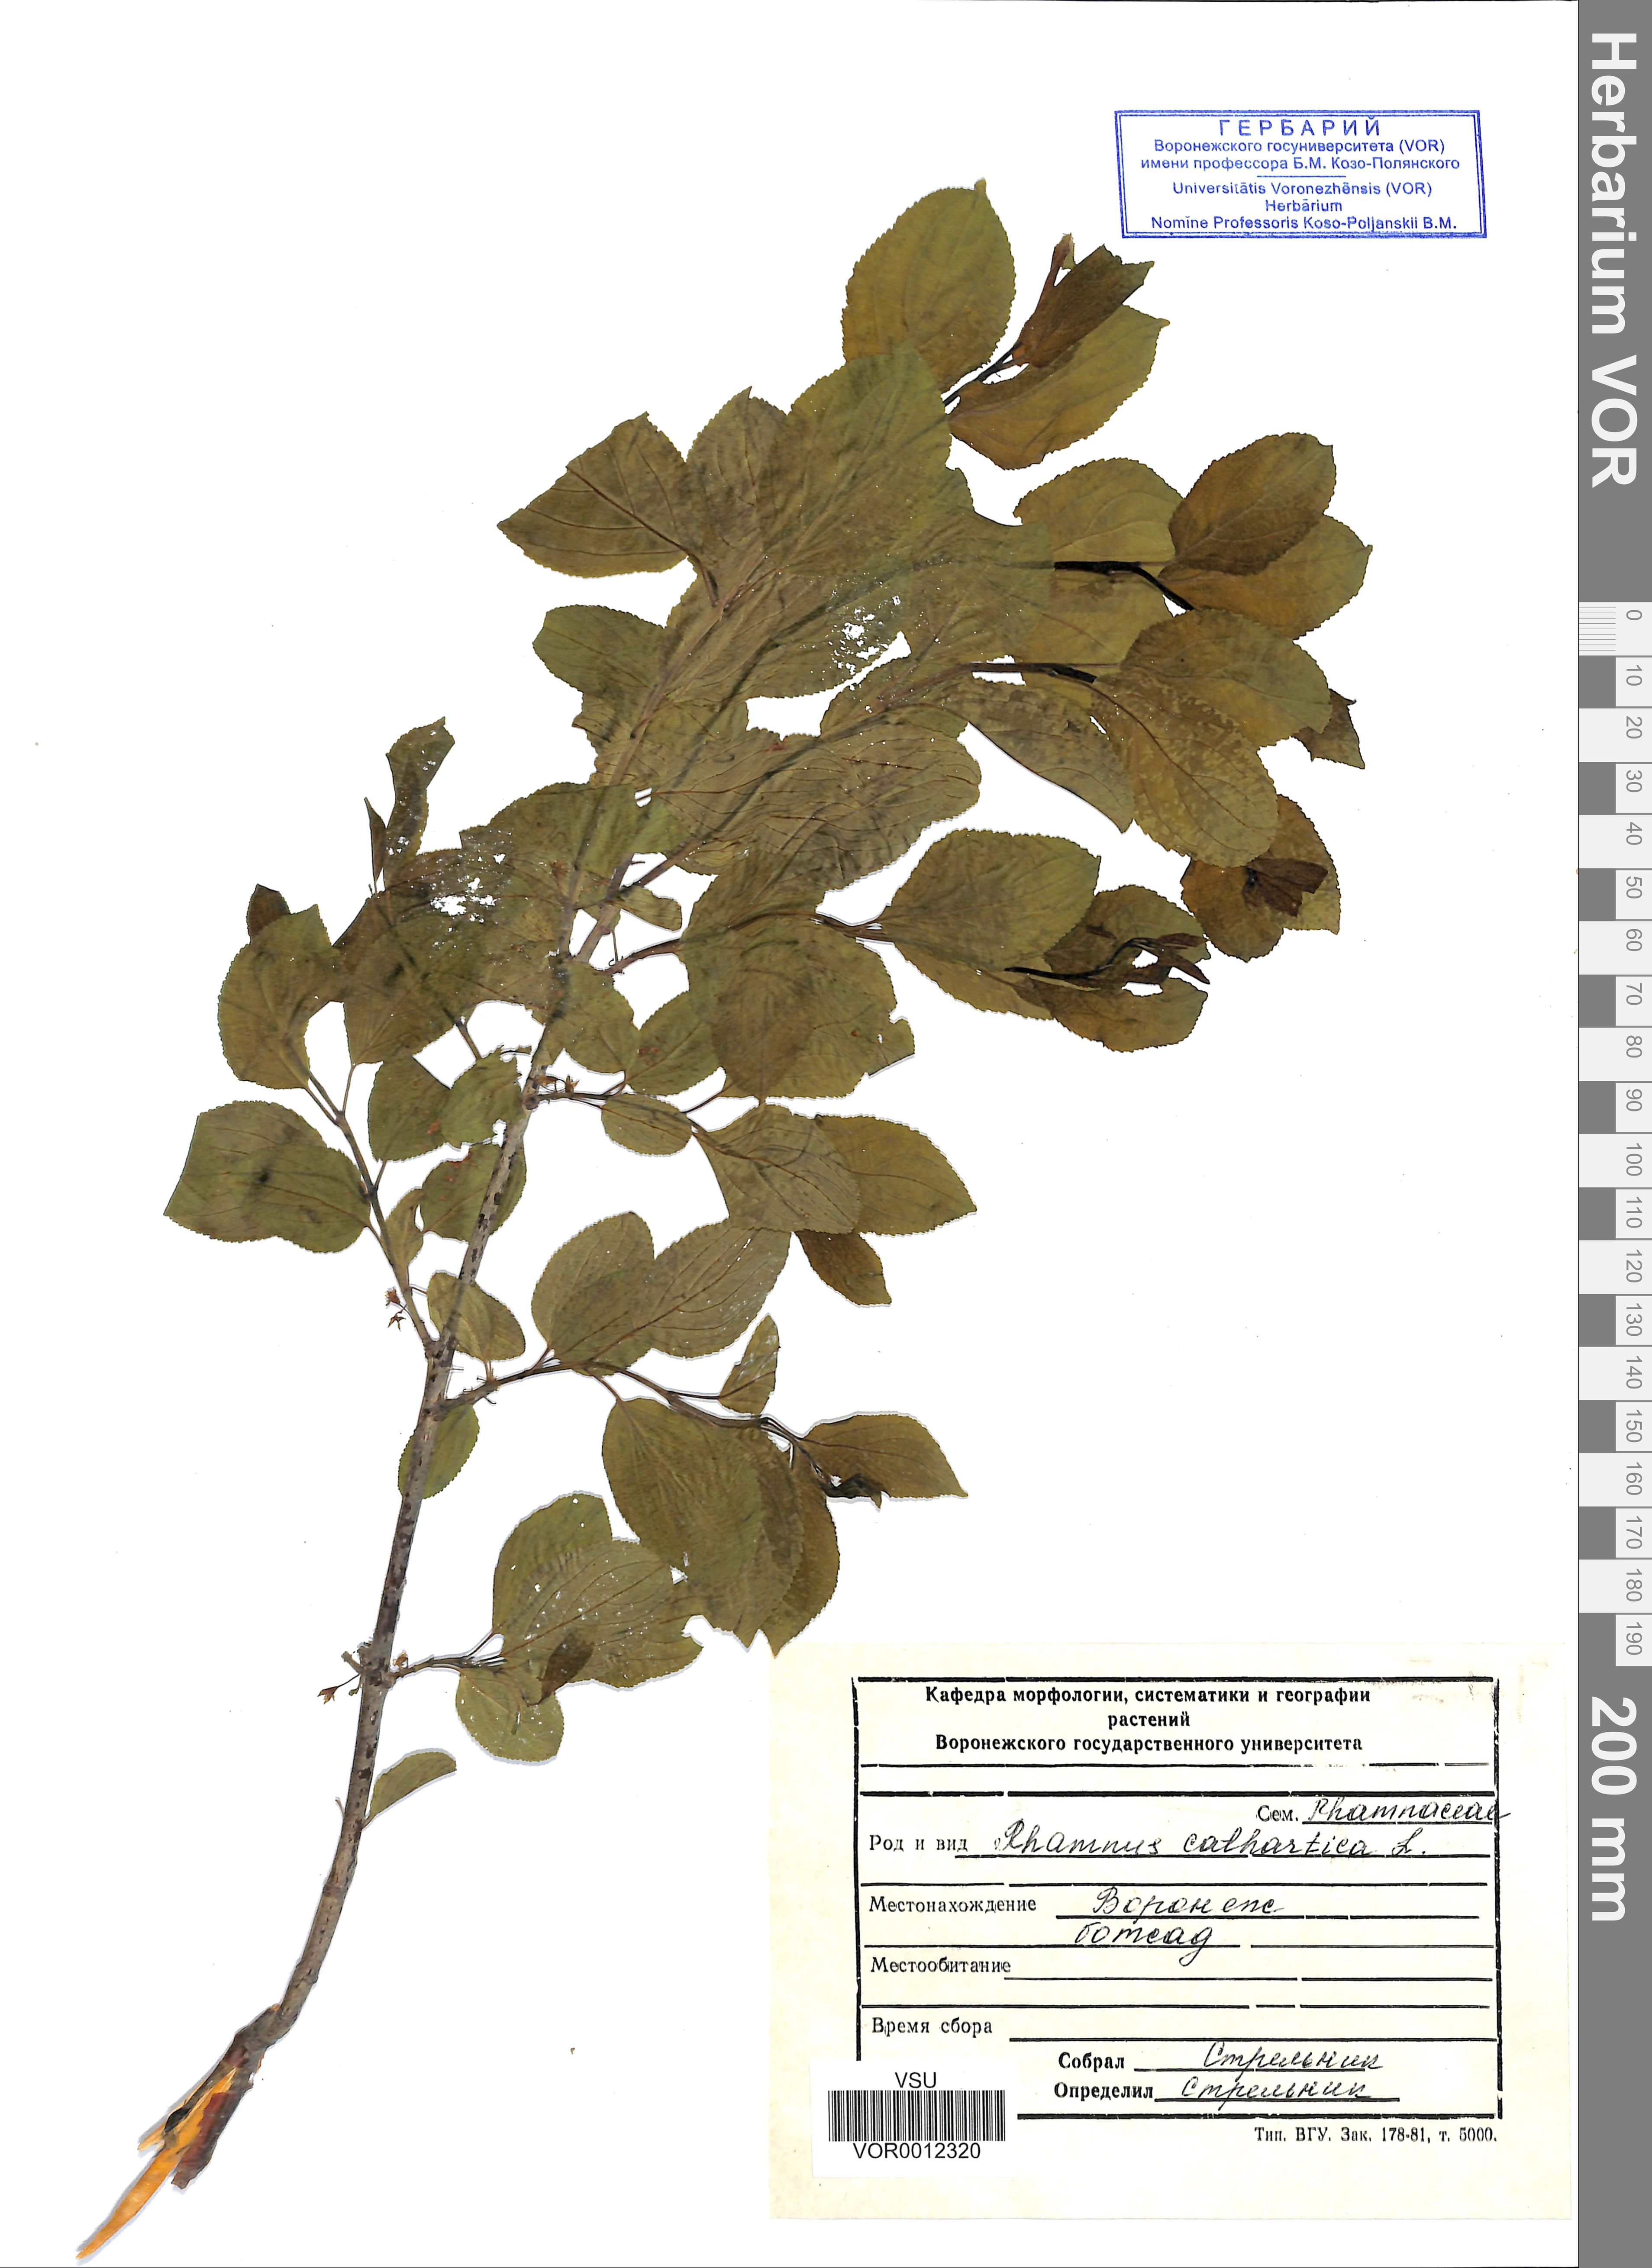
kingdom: Plantae
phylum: Tracheophyta
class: Magnoliopsida
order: Rosales
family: Rhamnaceae
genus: Rhamnus
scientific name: Rhamnus cathartica
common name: Common buckthorn
